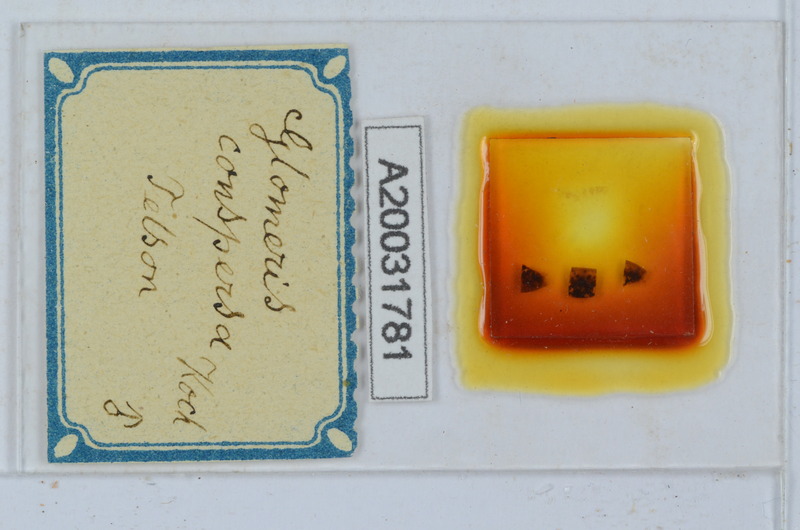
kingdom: Animalia
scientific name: Animalia
